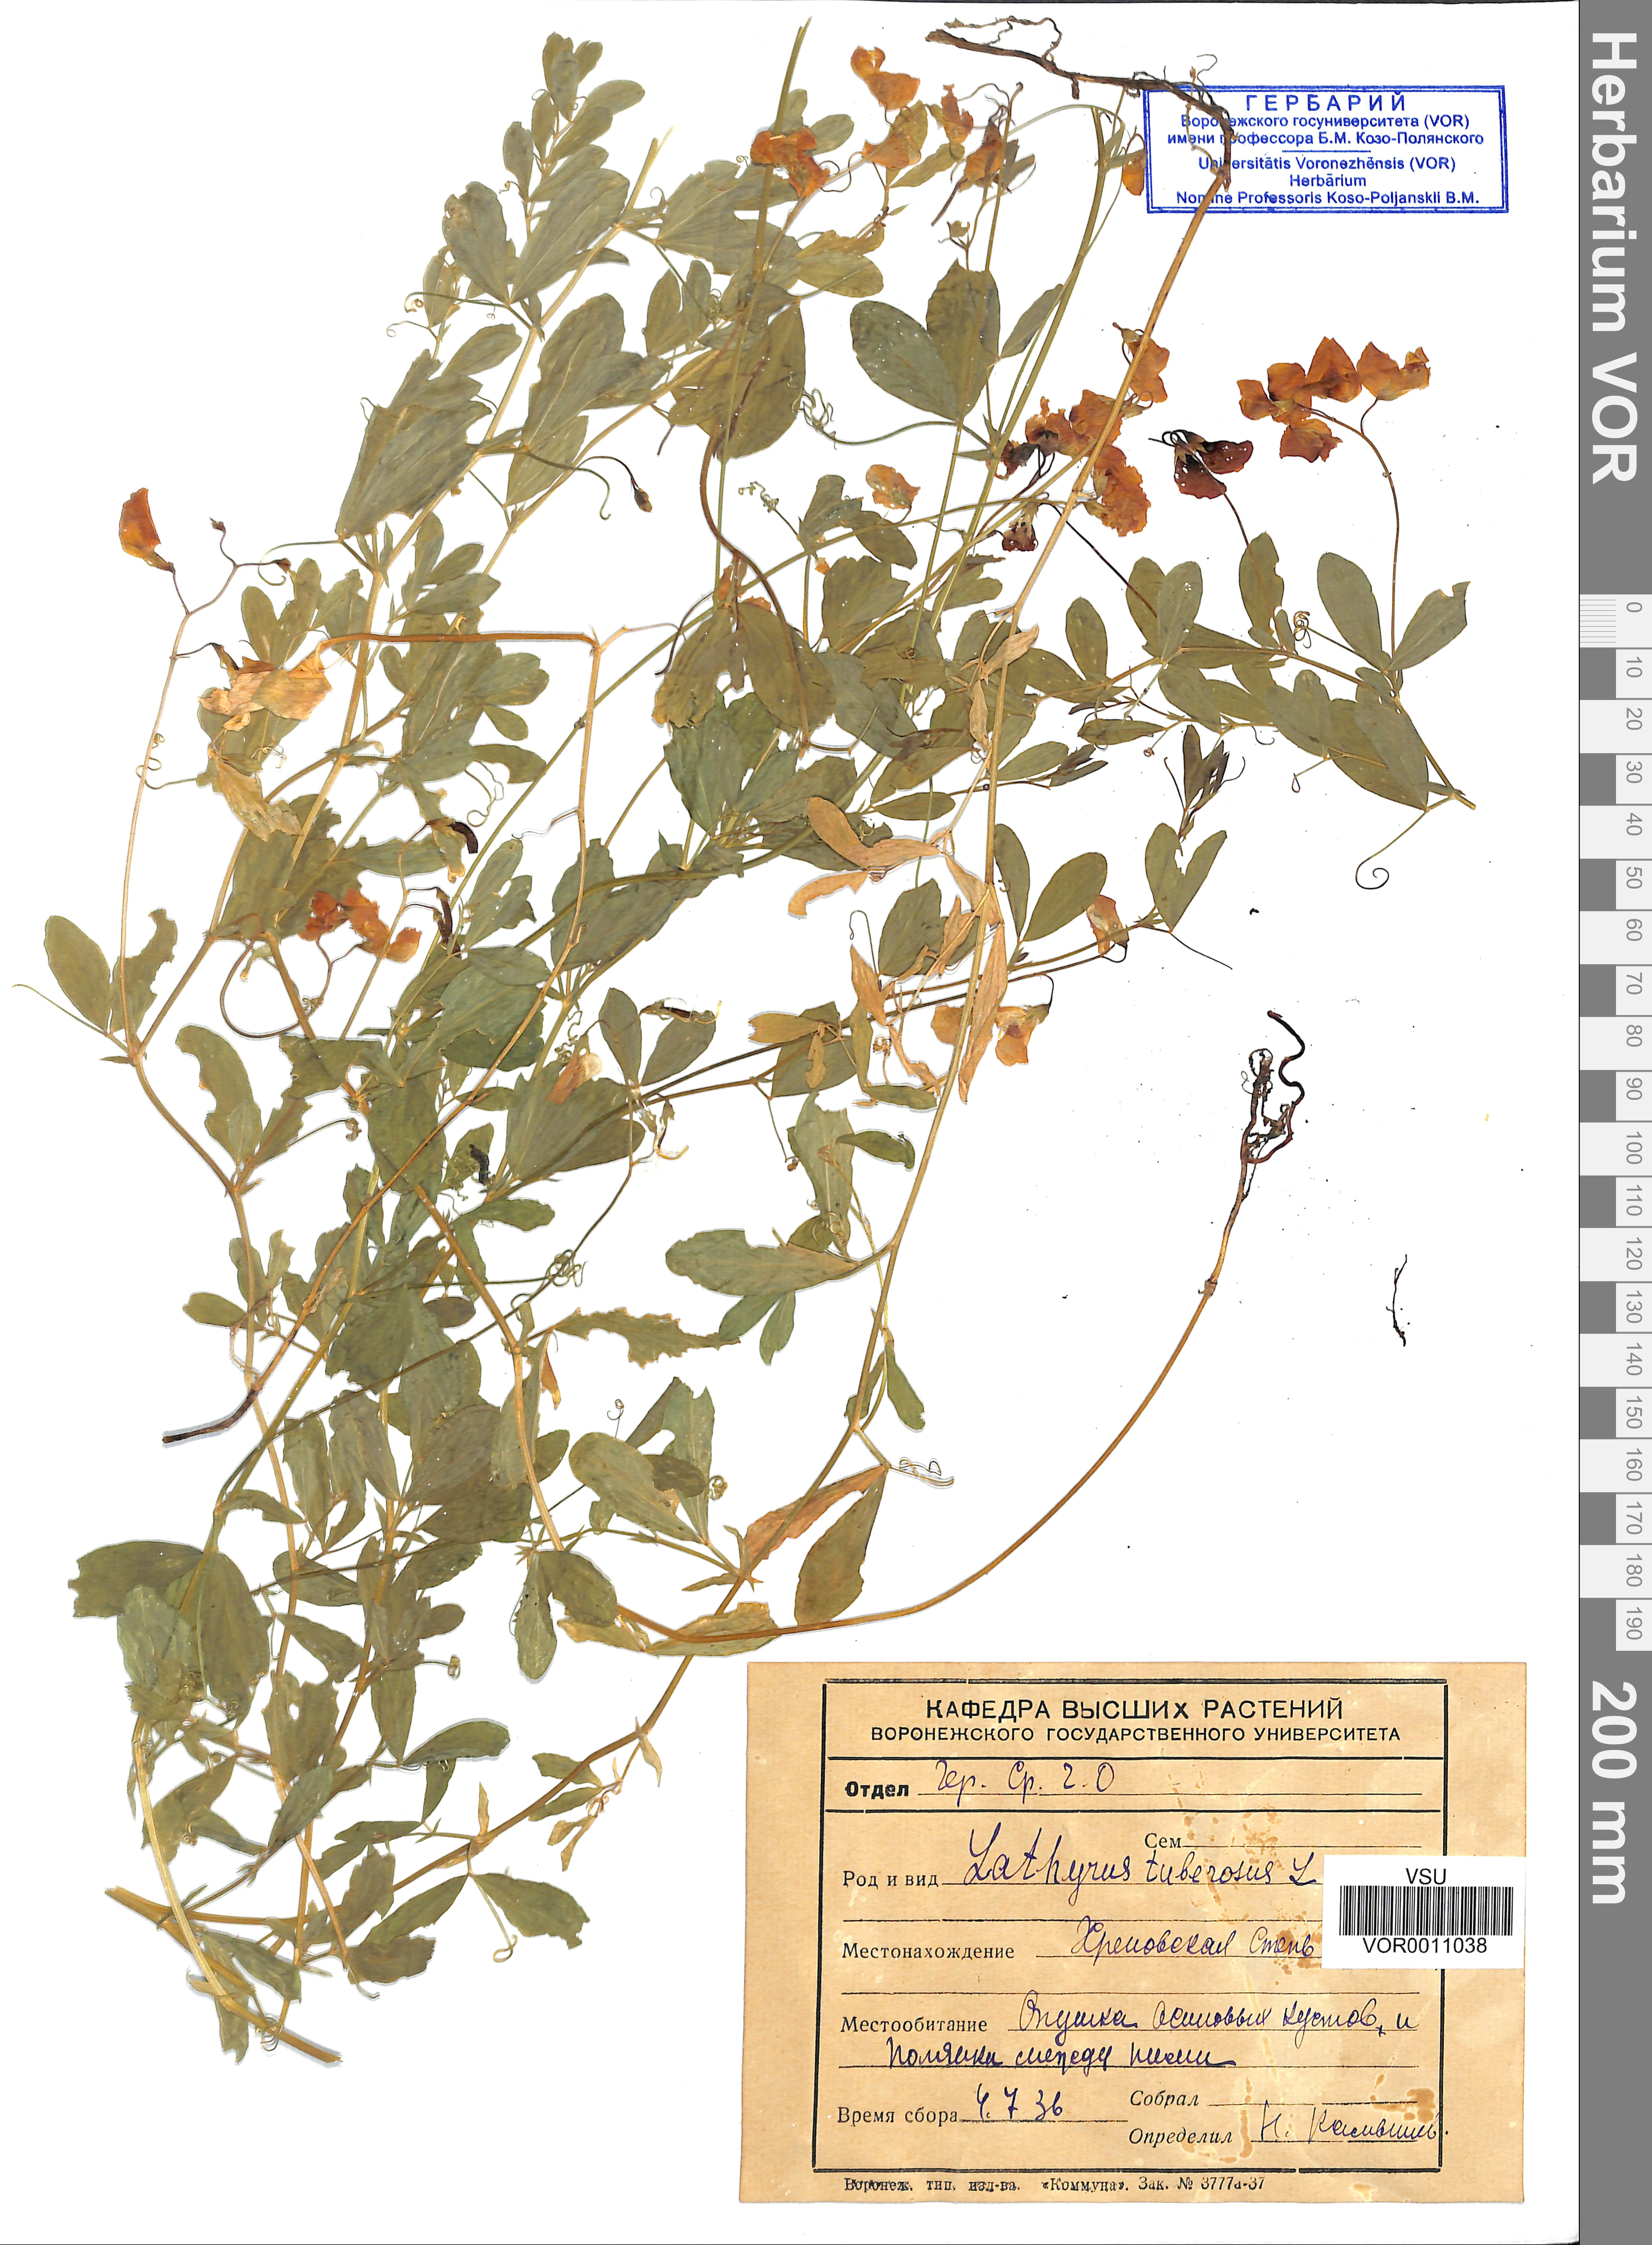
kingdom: Plantae
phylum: Tracheophyta
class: Magnoliopsida
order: Fabales
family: Fabaceae
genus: Lathyrus
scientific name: Lathyrus tuberosus
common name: Tuberous pea
